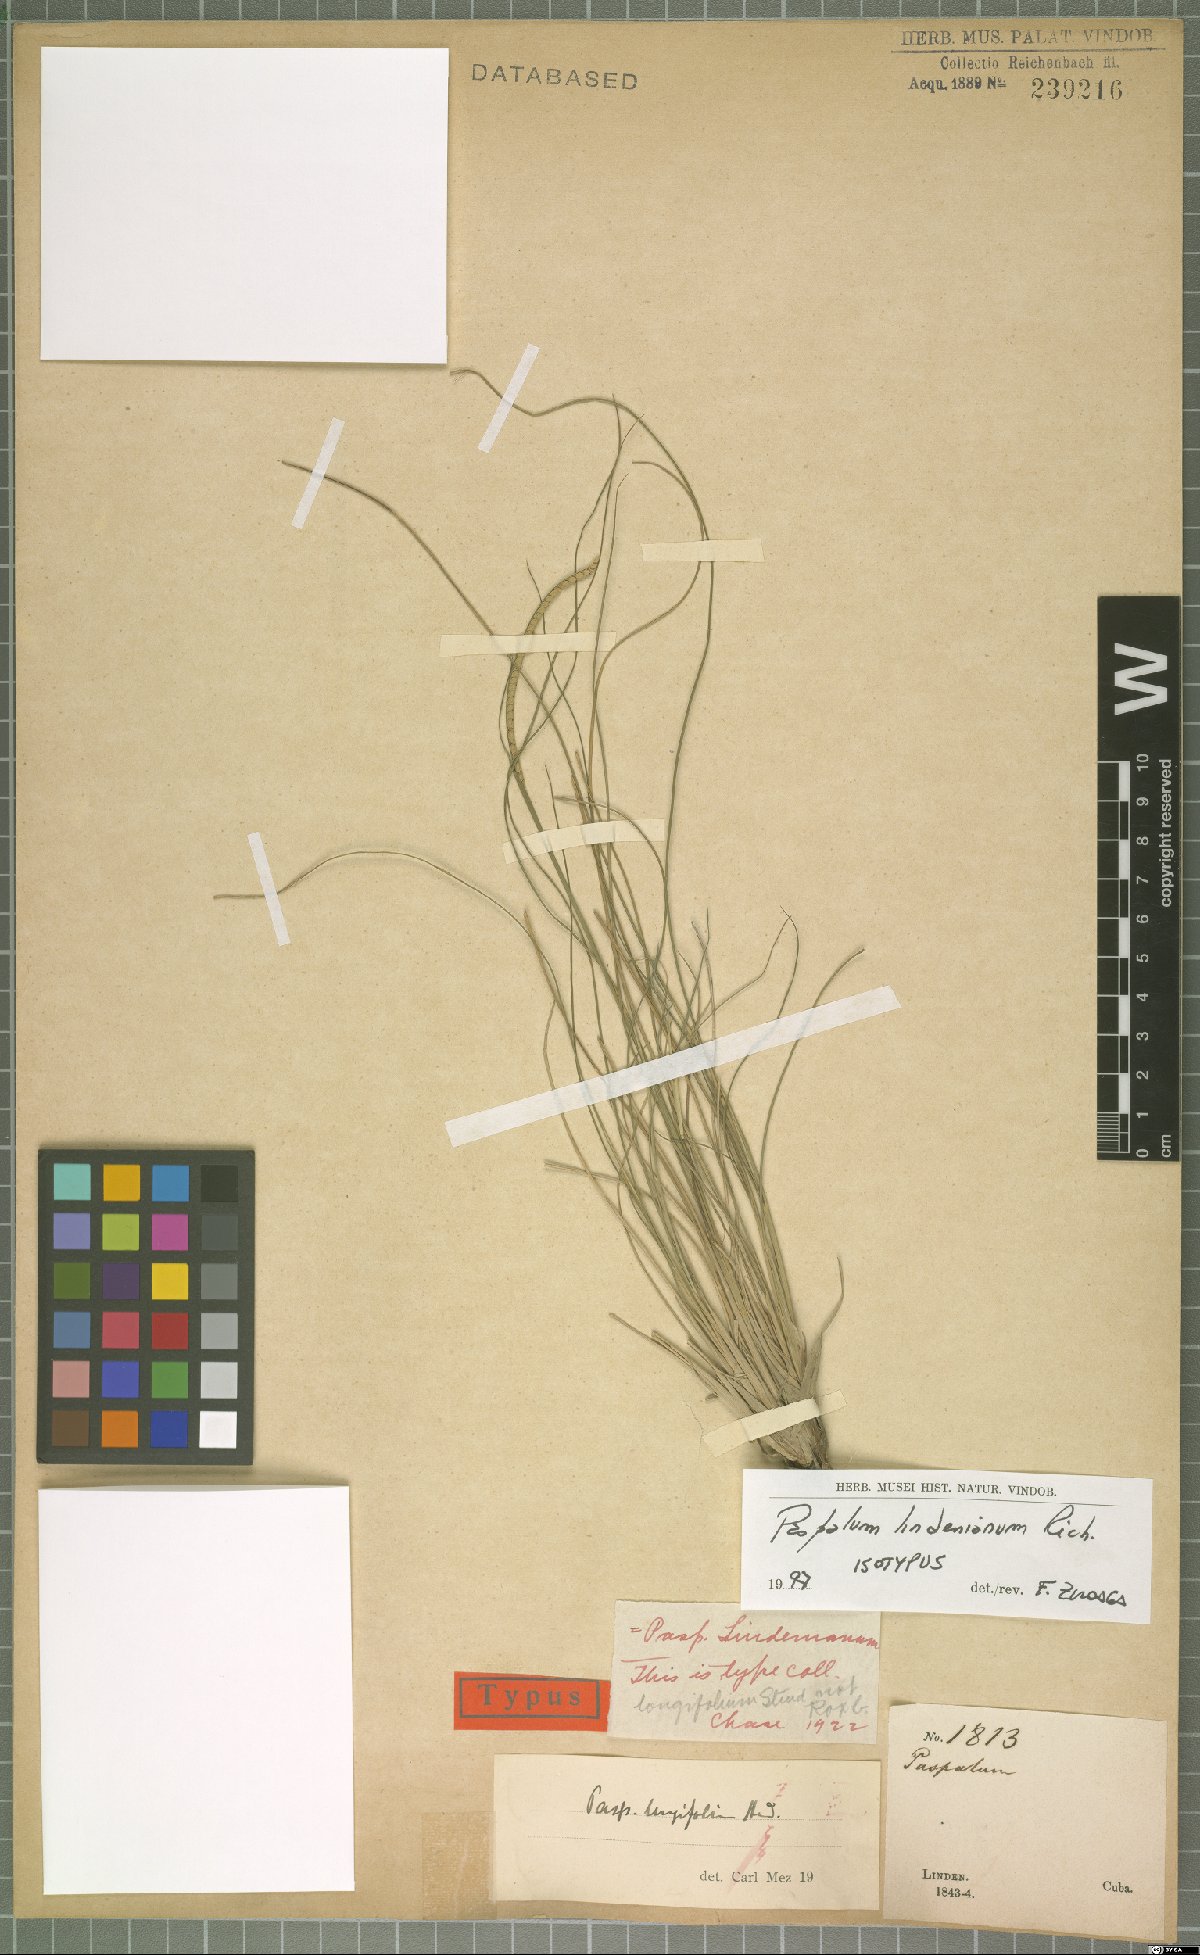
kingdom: Plantae
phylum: Tracheophyta
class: Liliopsida
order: Poales
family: Poaceae
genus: Paspalum
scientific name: Paspalum lindenianum
